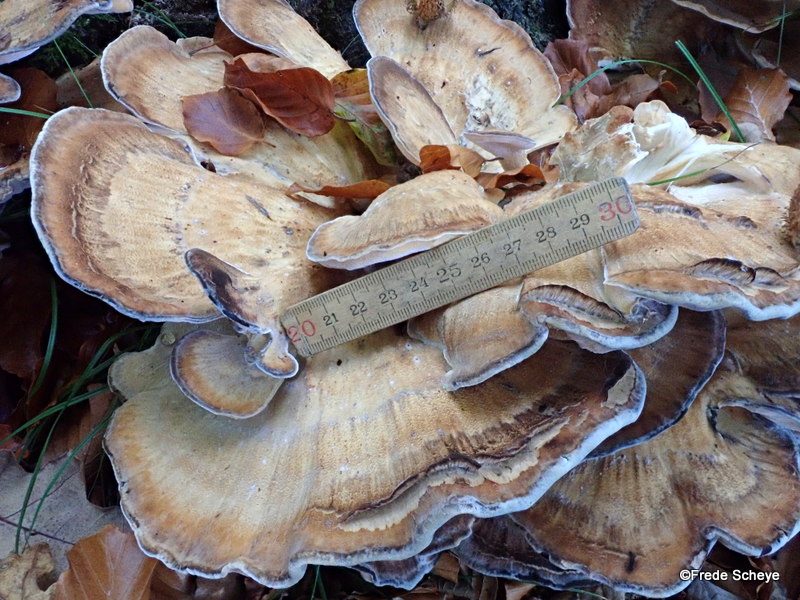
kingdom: Fungi
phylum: Basidiomycota
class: Agaricomycetes
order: Polyporales
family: Meripilaceae
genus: Meripilus
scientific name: Meripilus giganteus
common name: kæmpeporesvamp
